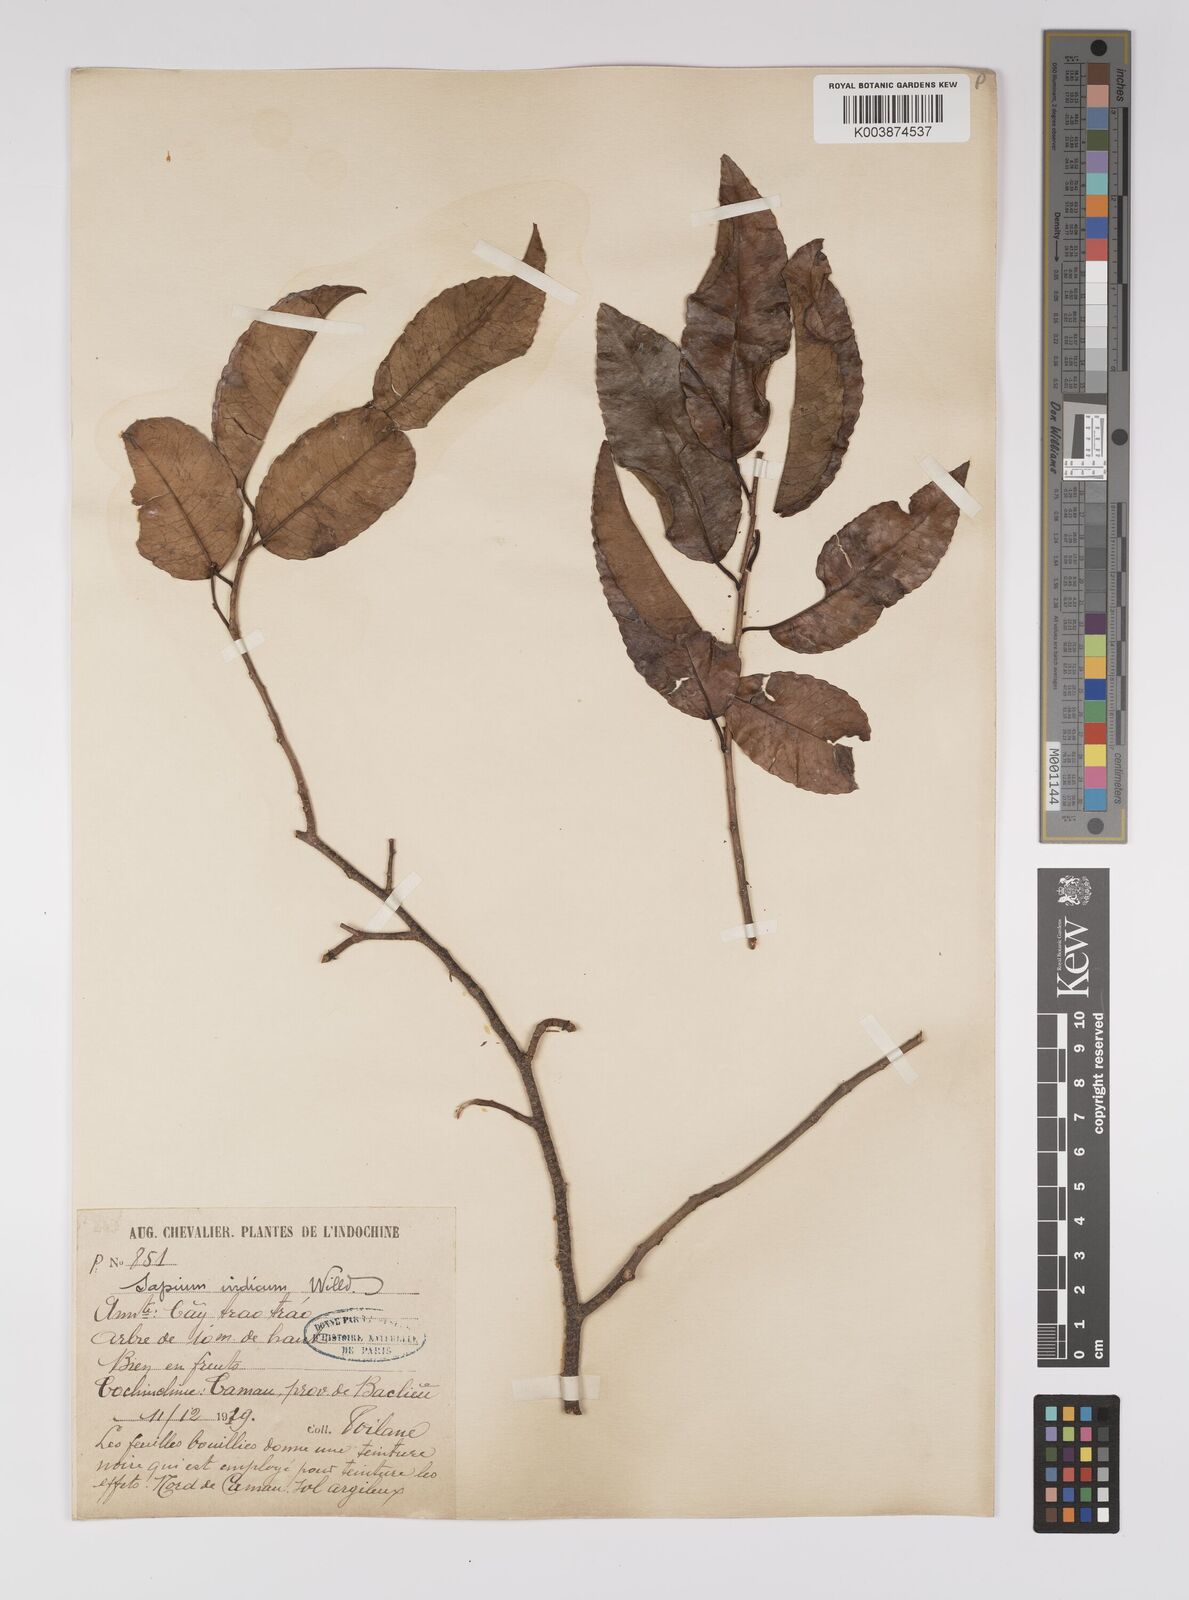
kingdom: Plantae
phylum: Tracheophyta
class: Magnoliopsida
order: Malpighiales
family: Euphorbiaceae
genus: Shirakiopsis
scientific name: Shirakiopsis indica
